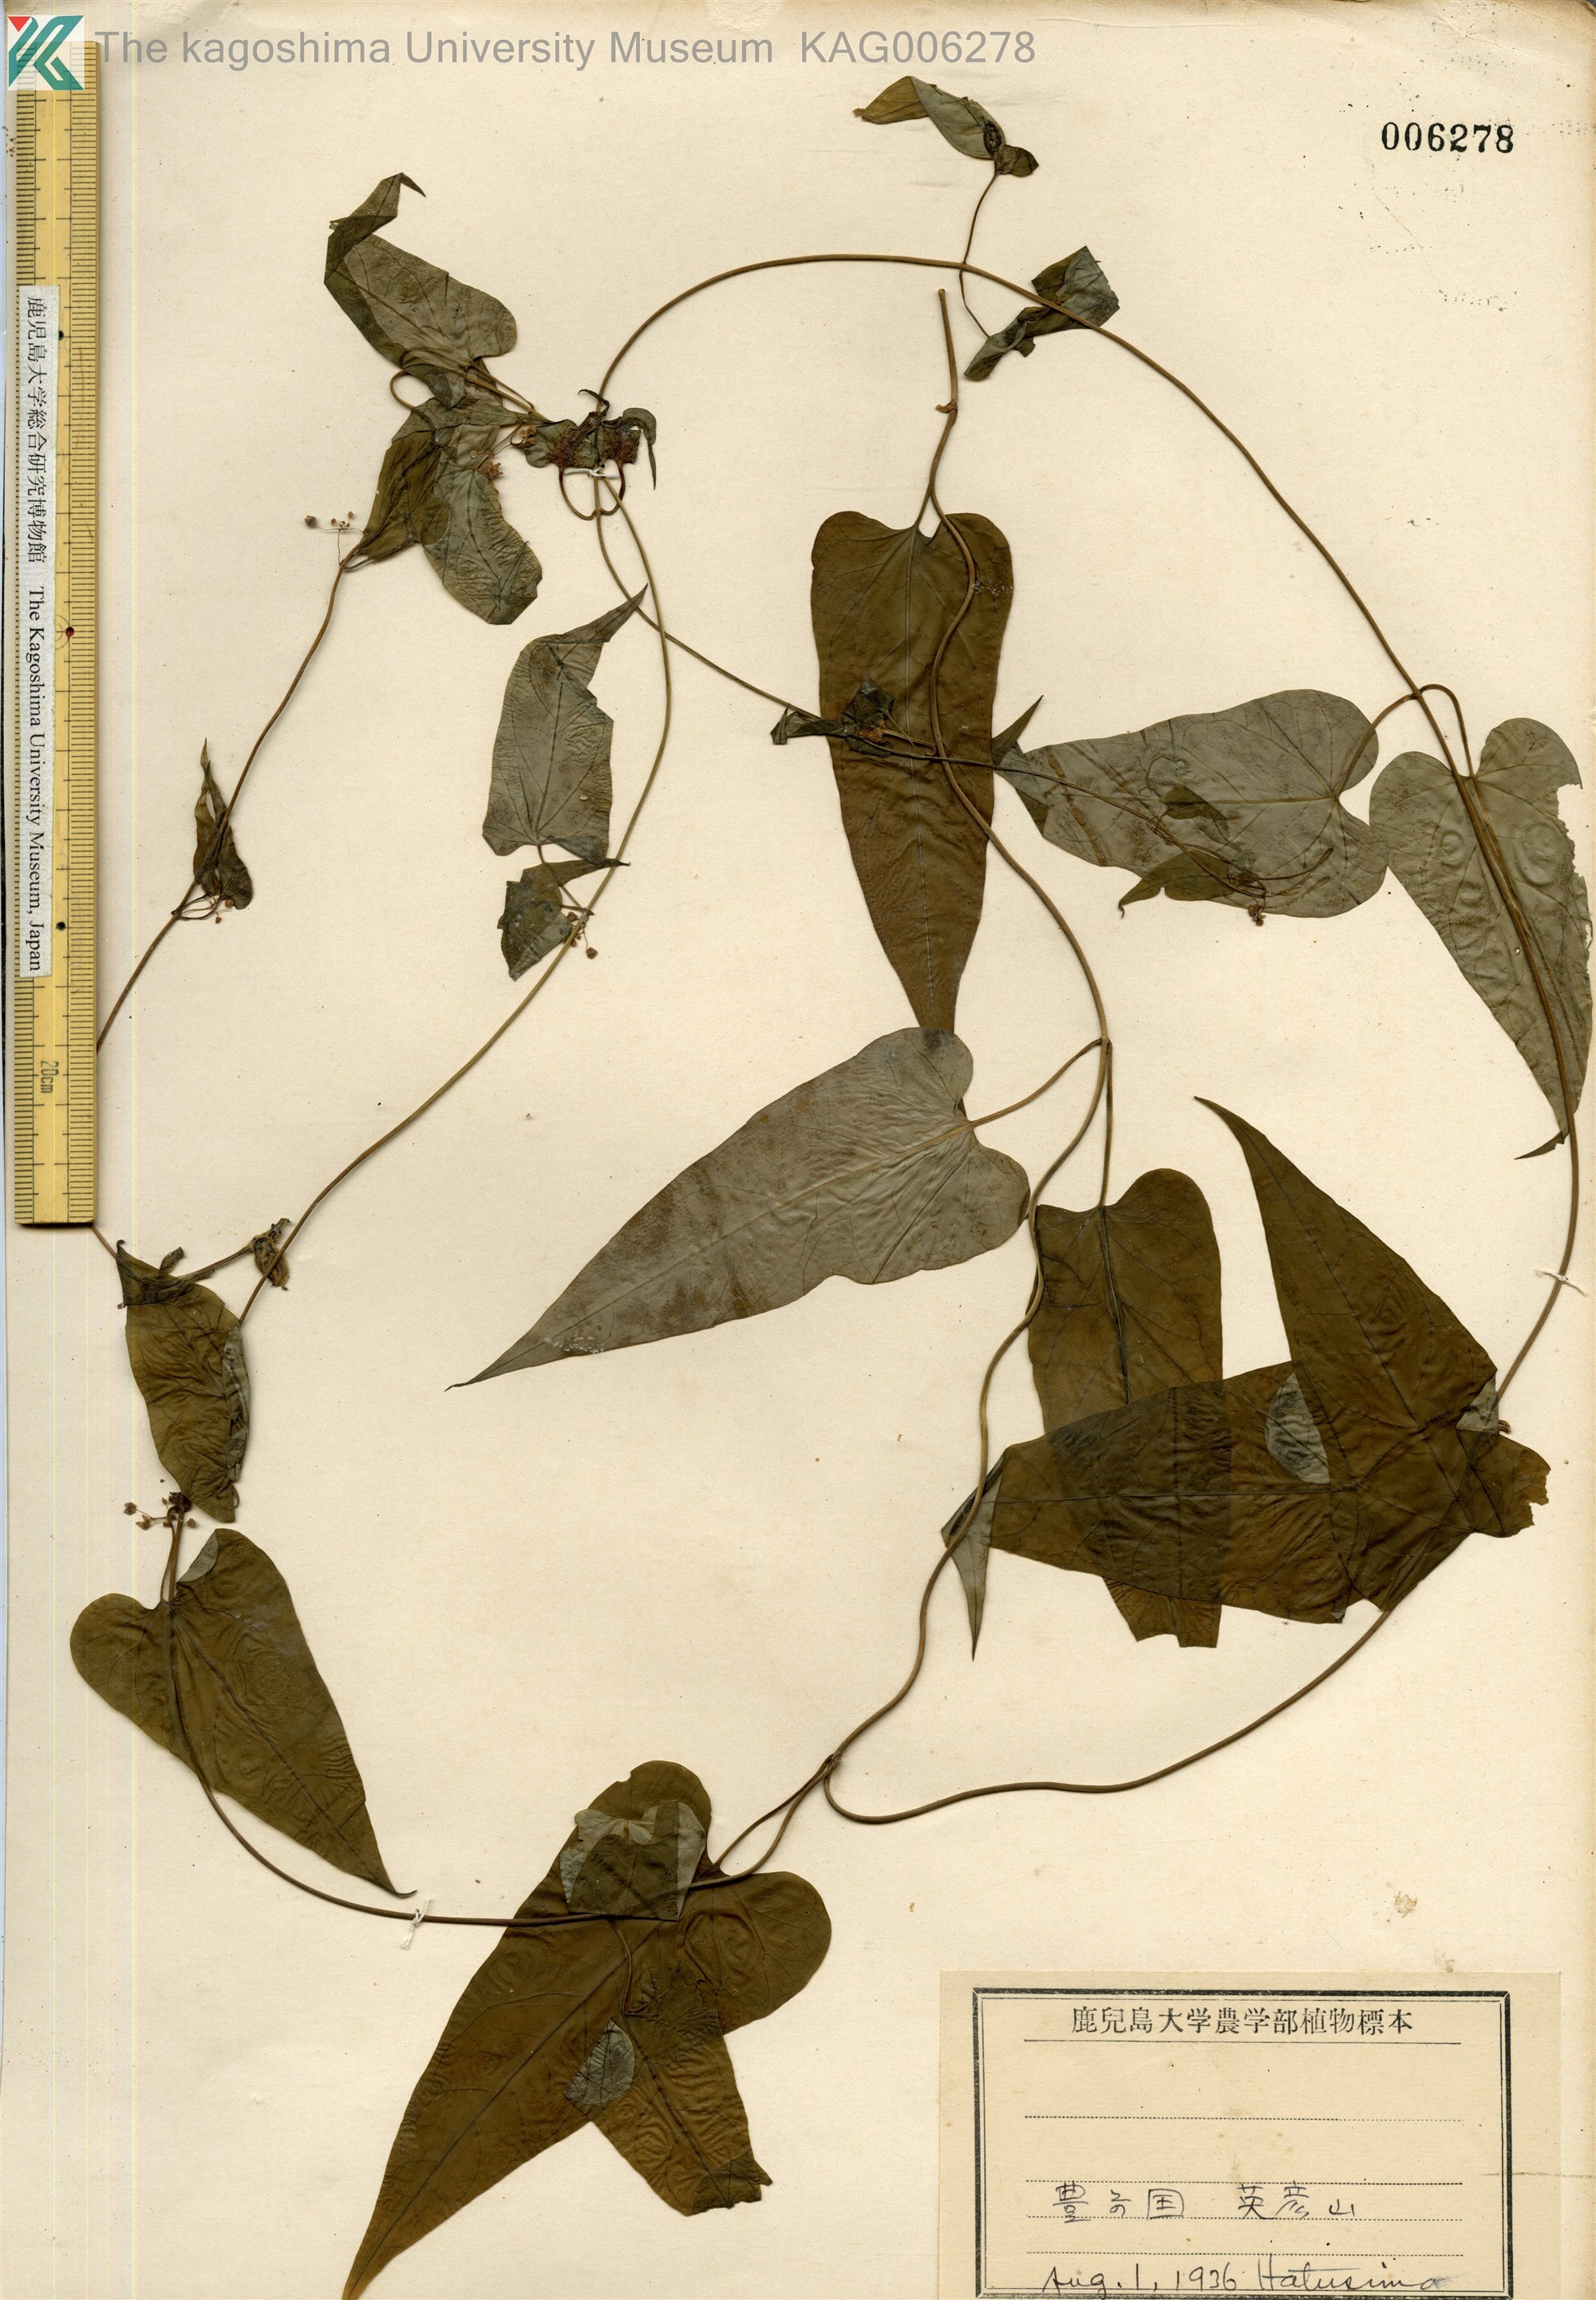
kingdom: Plantae
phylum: Tracheophyta
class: Magnoliopsida
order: Gentianales
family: Apocynaceae
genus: Vincetoxicum
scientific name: Vincetoxicum aristolochioides
